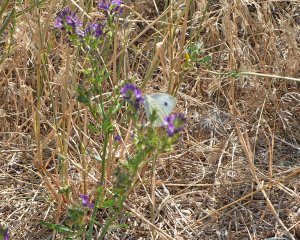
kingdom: Animalia
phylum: Arthropoda
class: Insecta
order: Lepidoptera
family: Pieridae
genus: Pieris
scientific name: Pieris rapae
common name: Cabbage White
